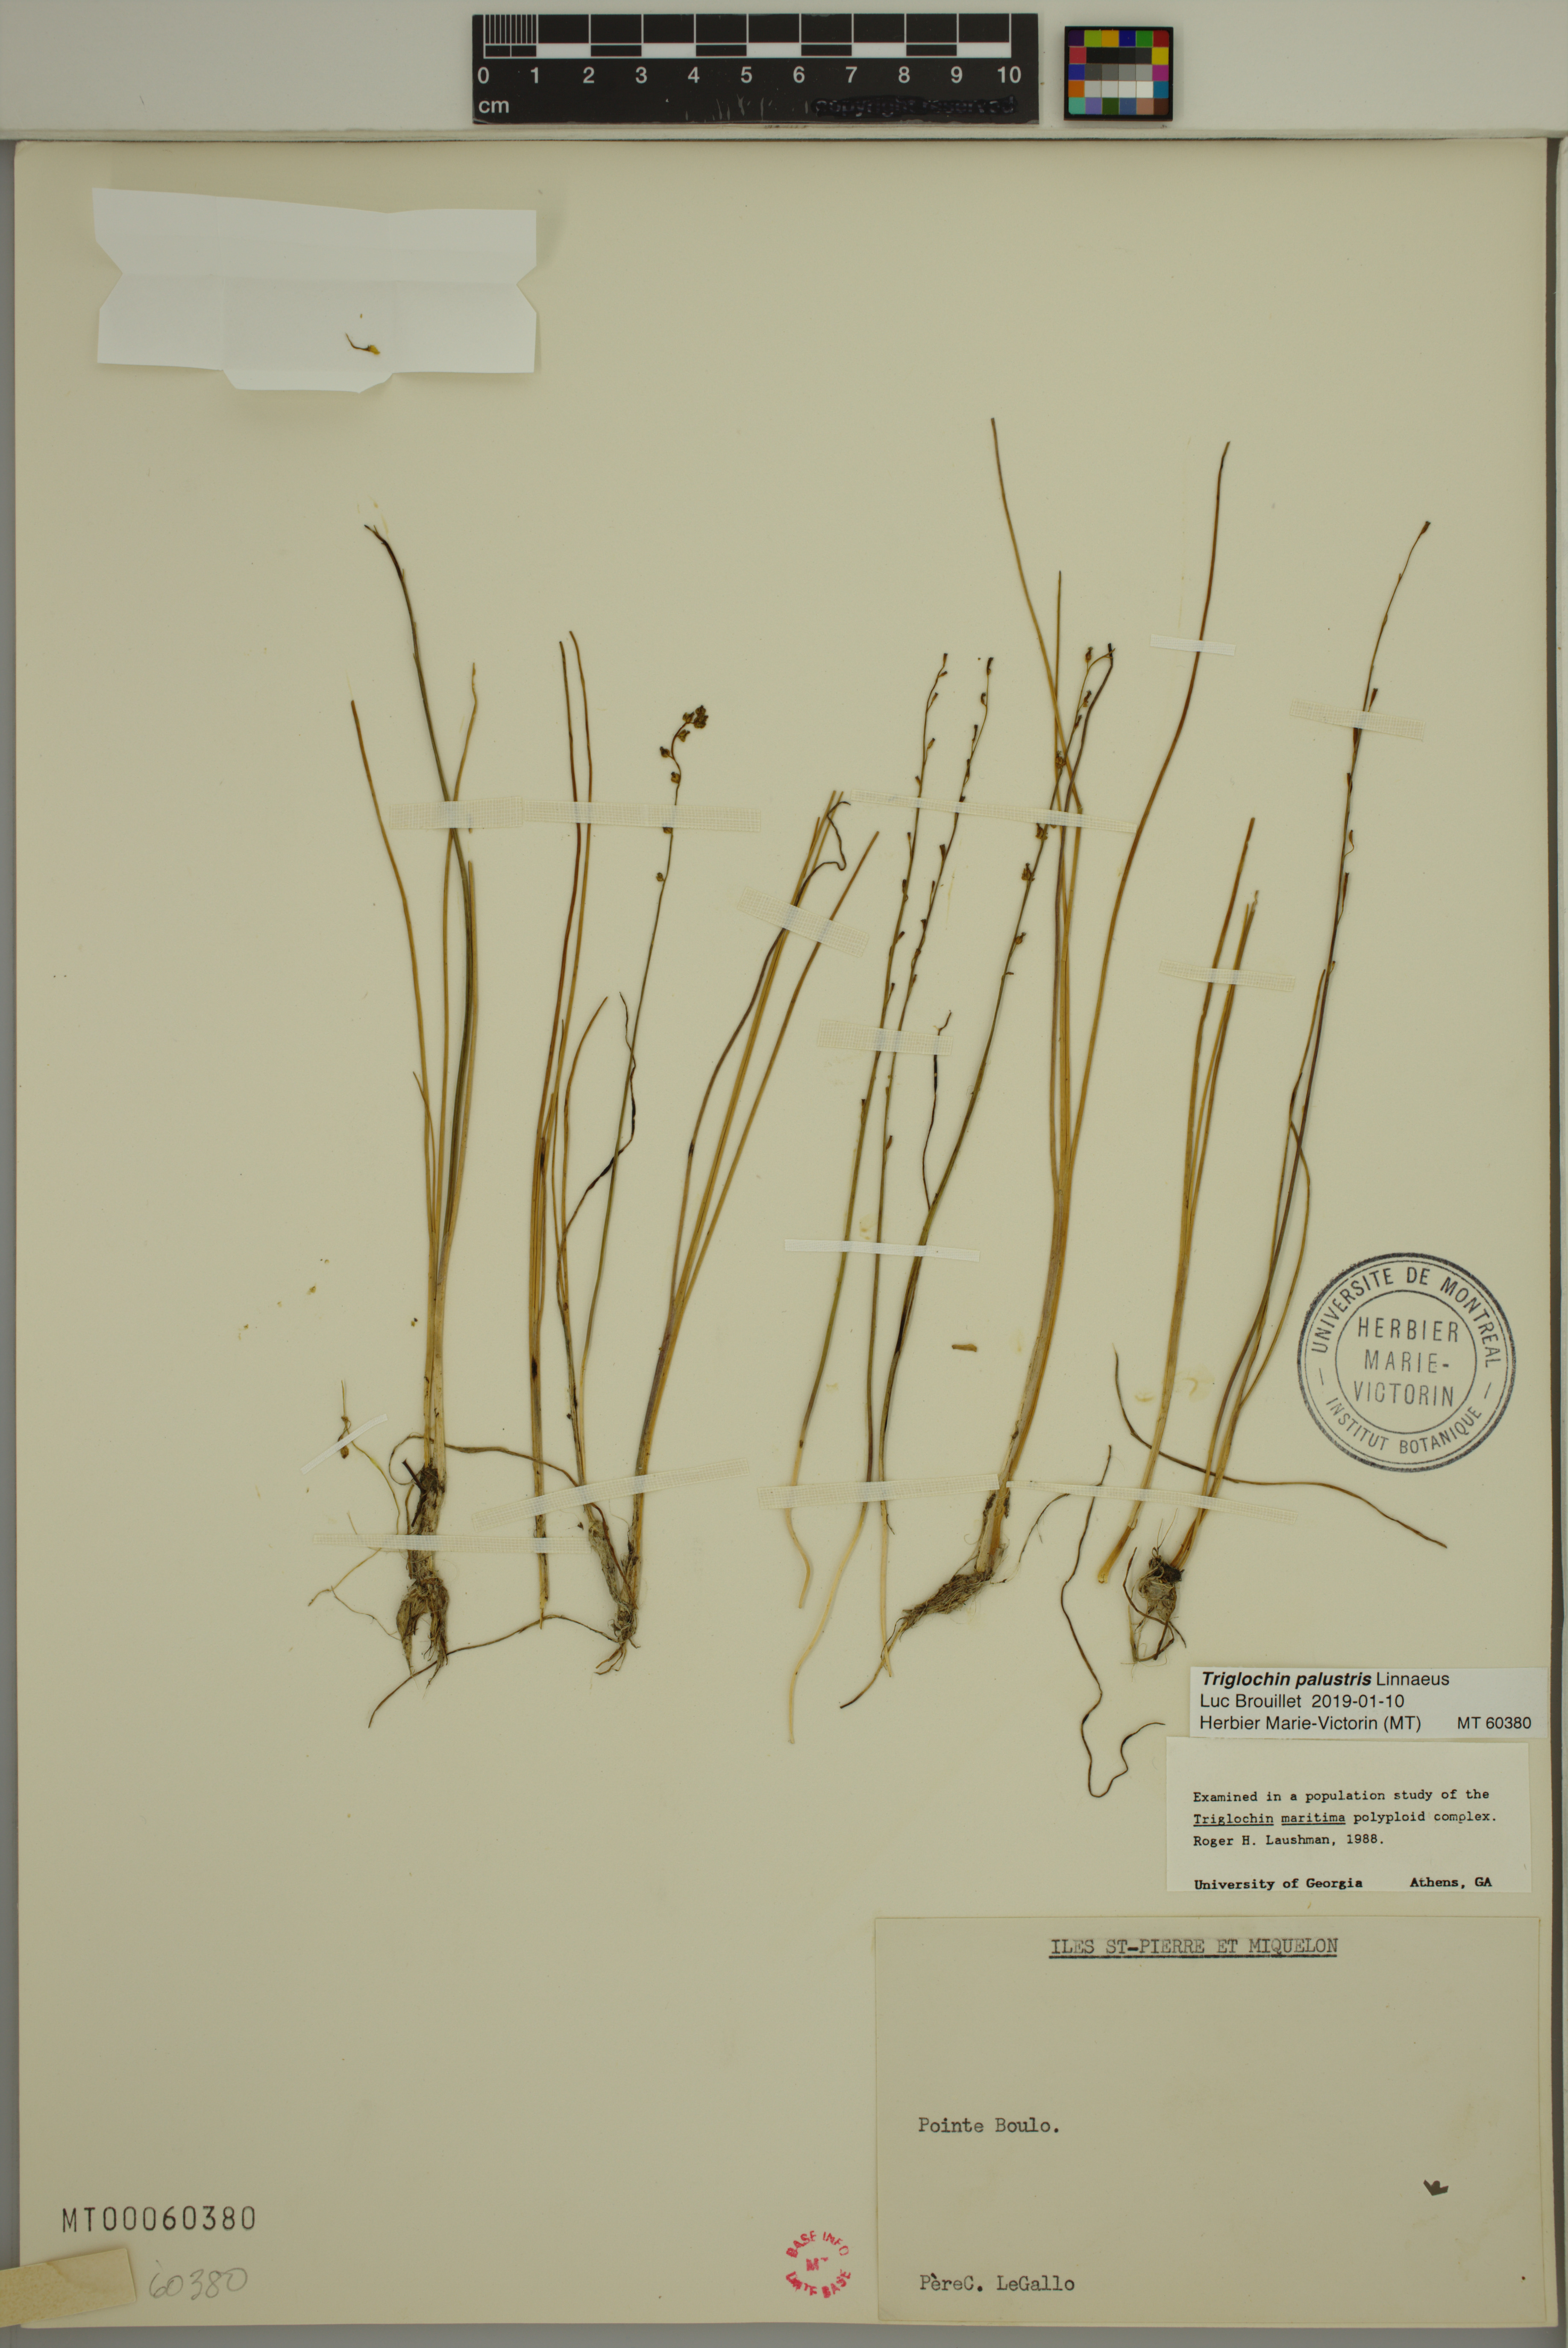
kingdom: Plantae
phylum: Tracheophyta
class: Liliopsida
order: Alismatales
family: Juncaginaceae
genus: Triglochin
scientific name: Triglochin palustris
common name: Marsh arrowgrass
